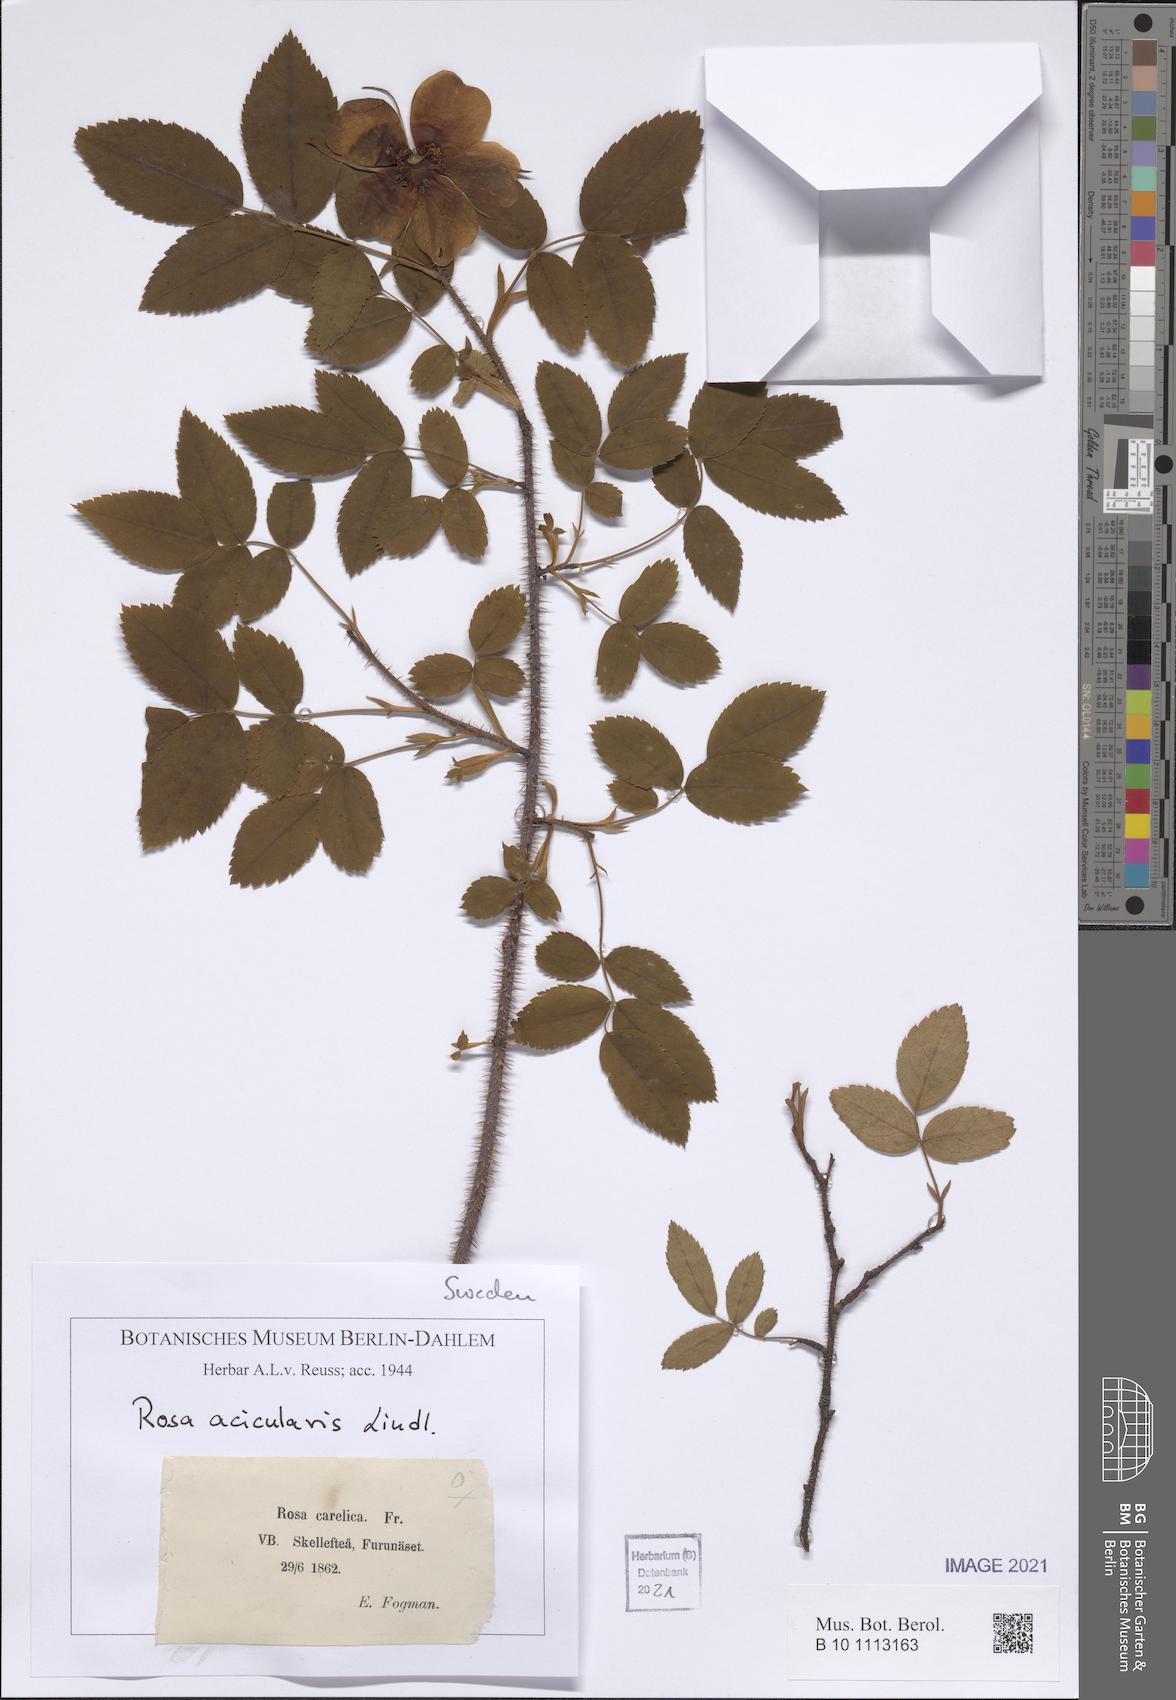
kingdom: Plantae
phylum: Tracheophyta
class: Magnoliopsida
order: Rosales
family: Rosaceae
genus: Rosa
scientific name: Rosa acicularis
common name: Prickly rose
